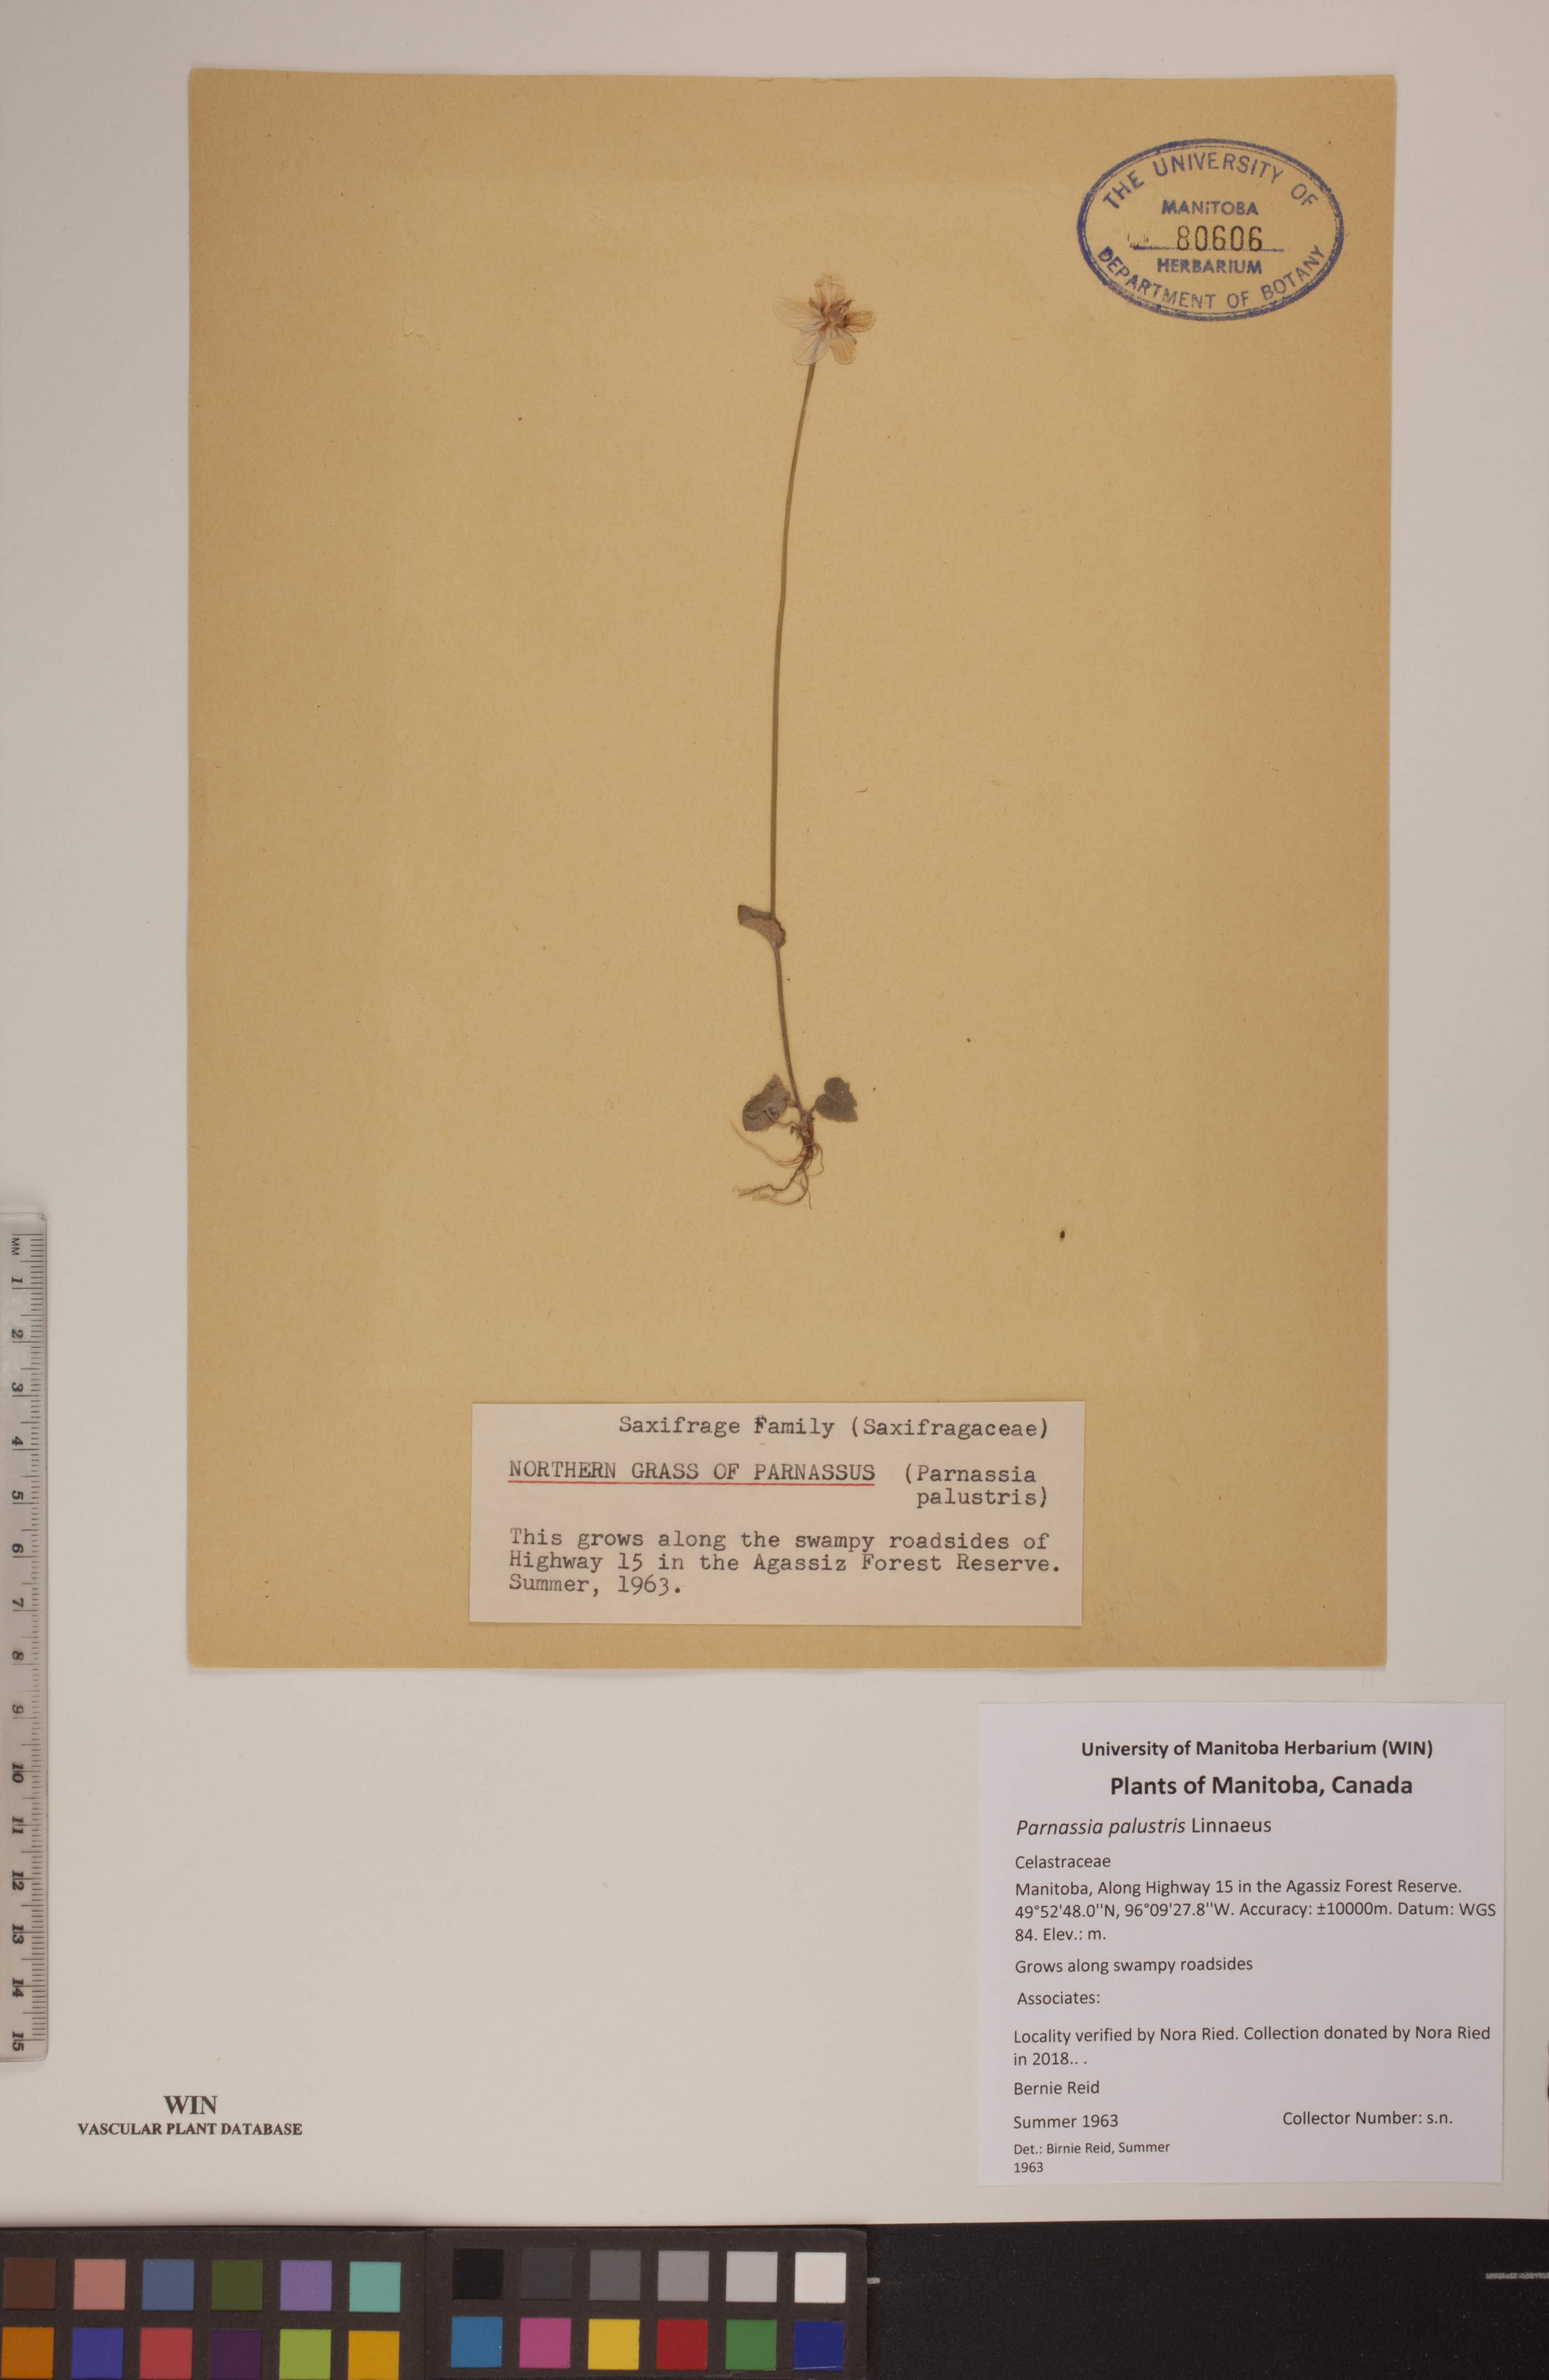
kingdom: Plantae
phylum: Tracheophyta
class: Magnoliopsida
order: Celastrales
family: Parnassiaceae
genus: Parnassia
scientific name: Parnassia palustris
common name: Grass-of-parnassus
